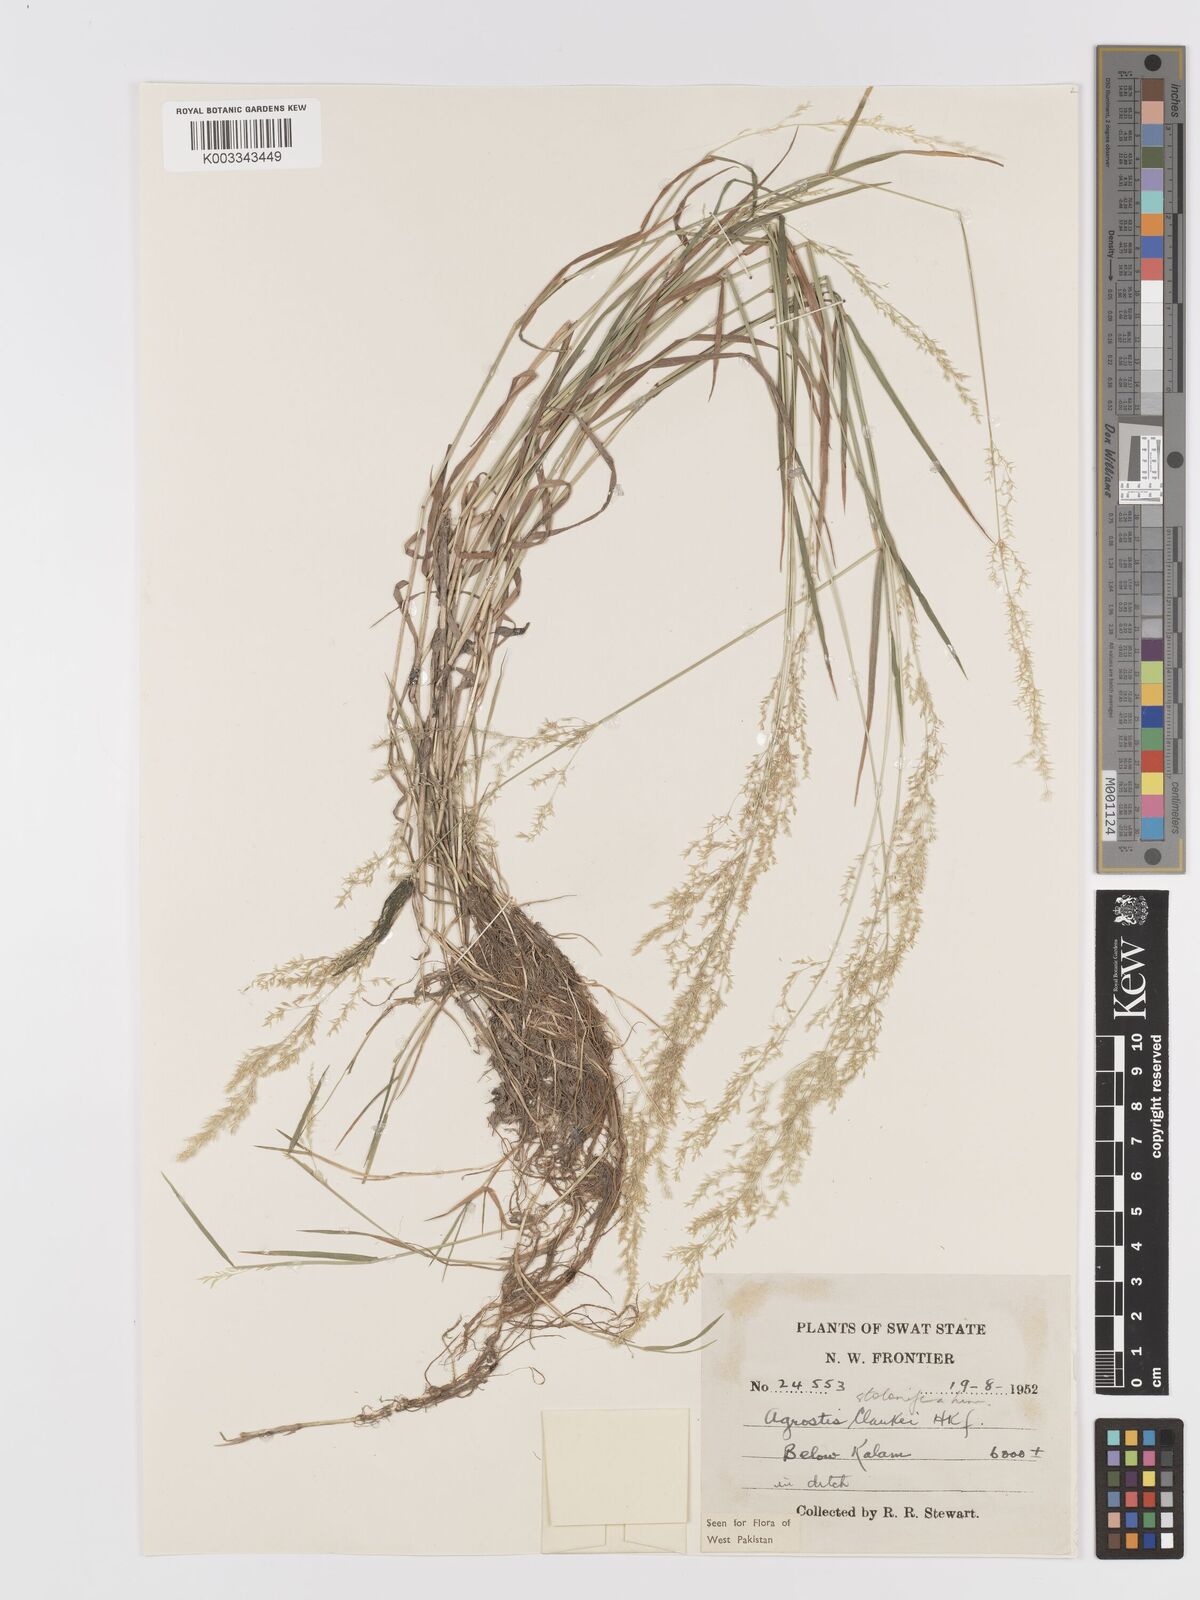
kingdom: Plantae
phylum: Tracheophyta
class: Liliopsida
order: Poales
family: Poaceae
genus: Agrostis
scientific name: Agrostis stolonifera
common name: Creeping bentgrass
